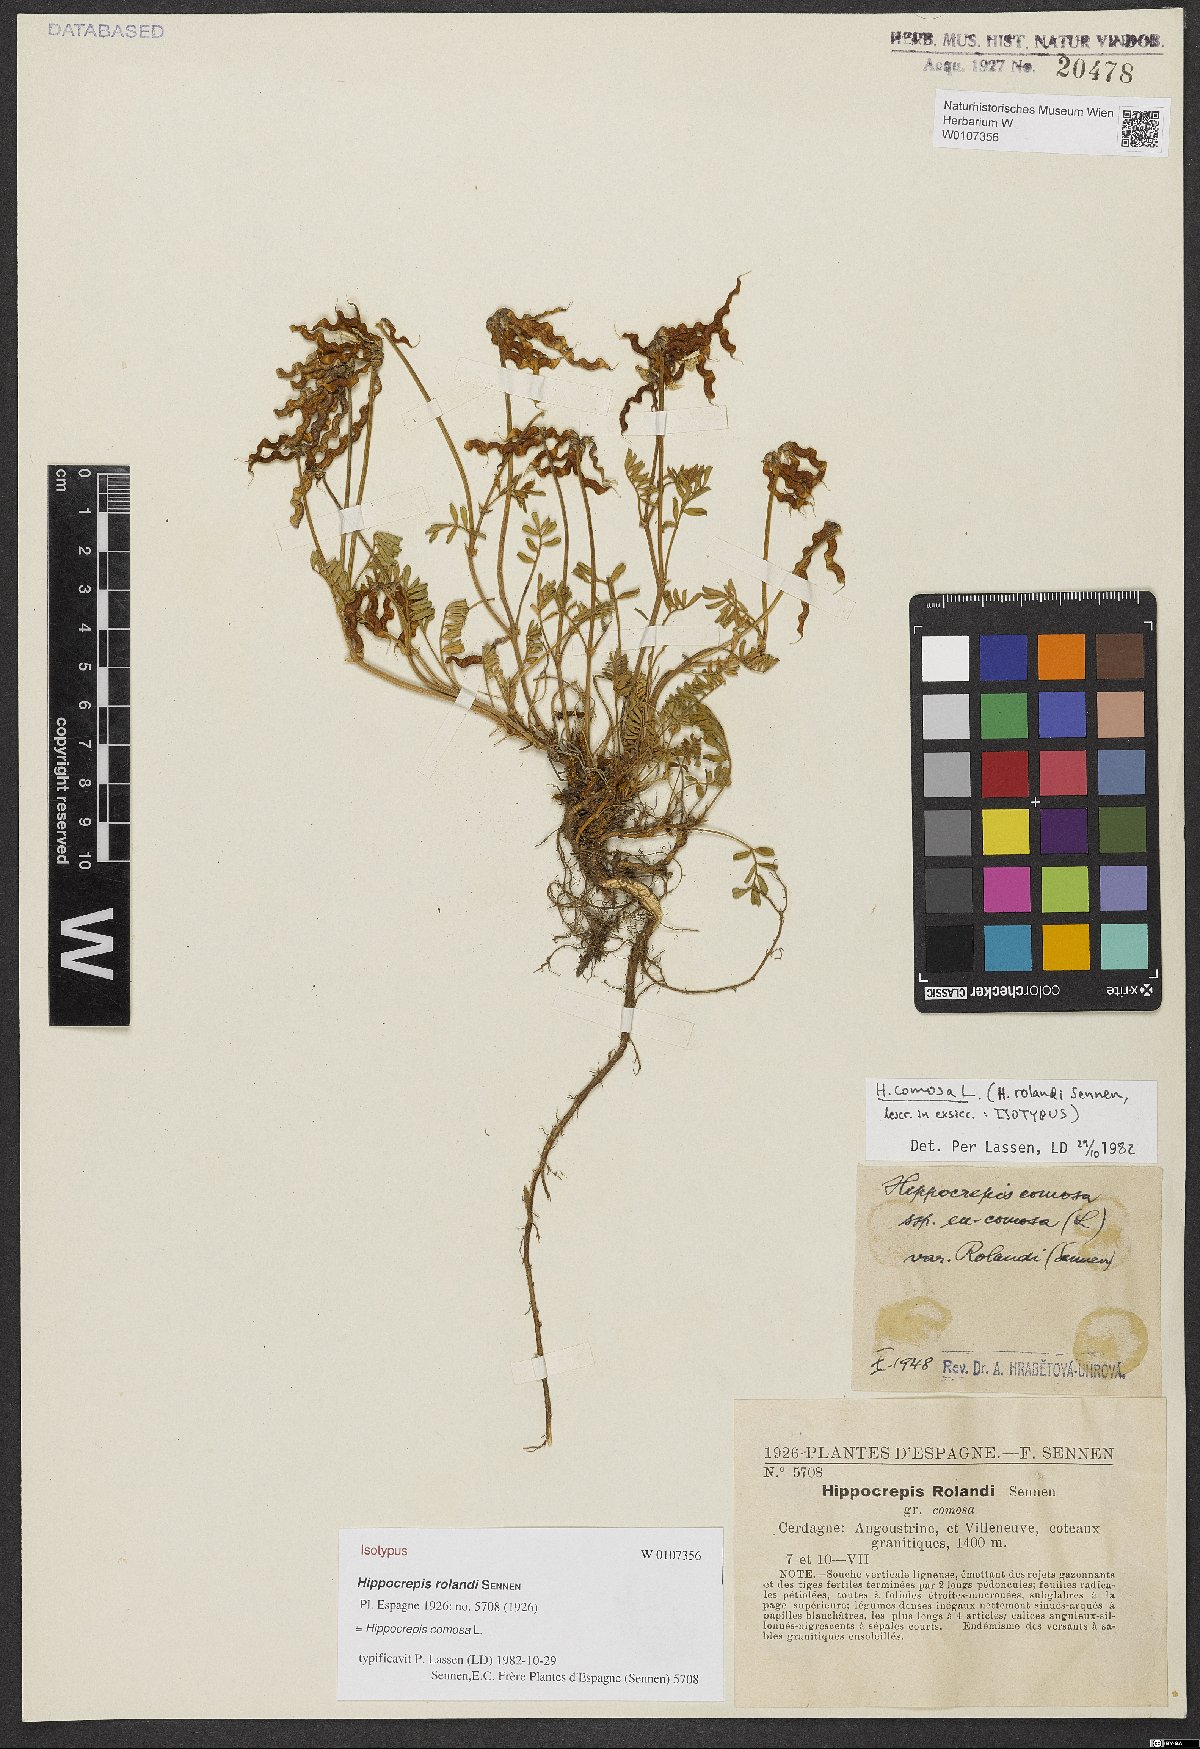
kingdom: Plantae
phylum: Tracheophyta
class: Magnoliopsida
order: Fabales
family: Fabaceae
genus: Hippocrepis
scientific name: Hippocrepis comosa
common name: Horseshoe vetch
